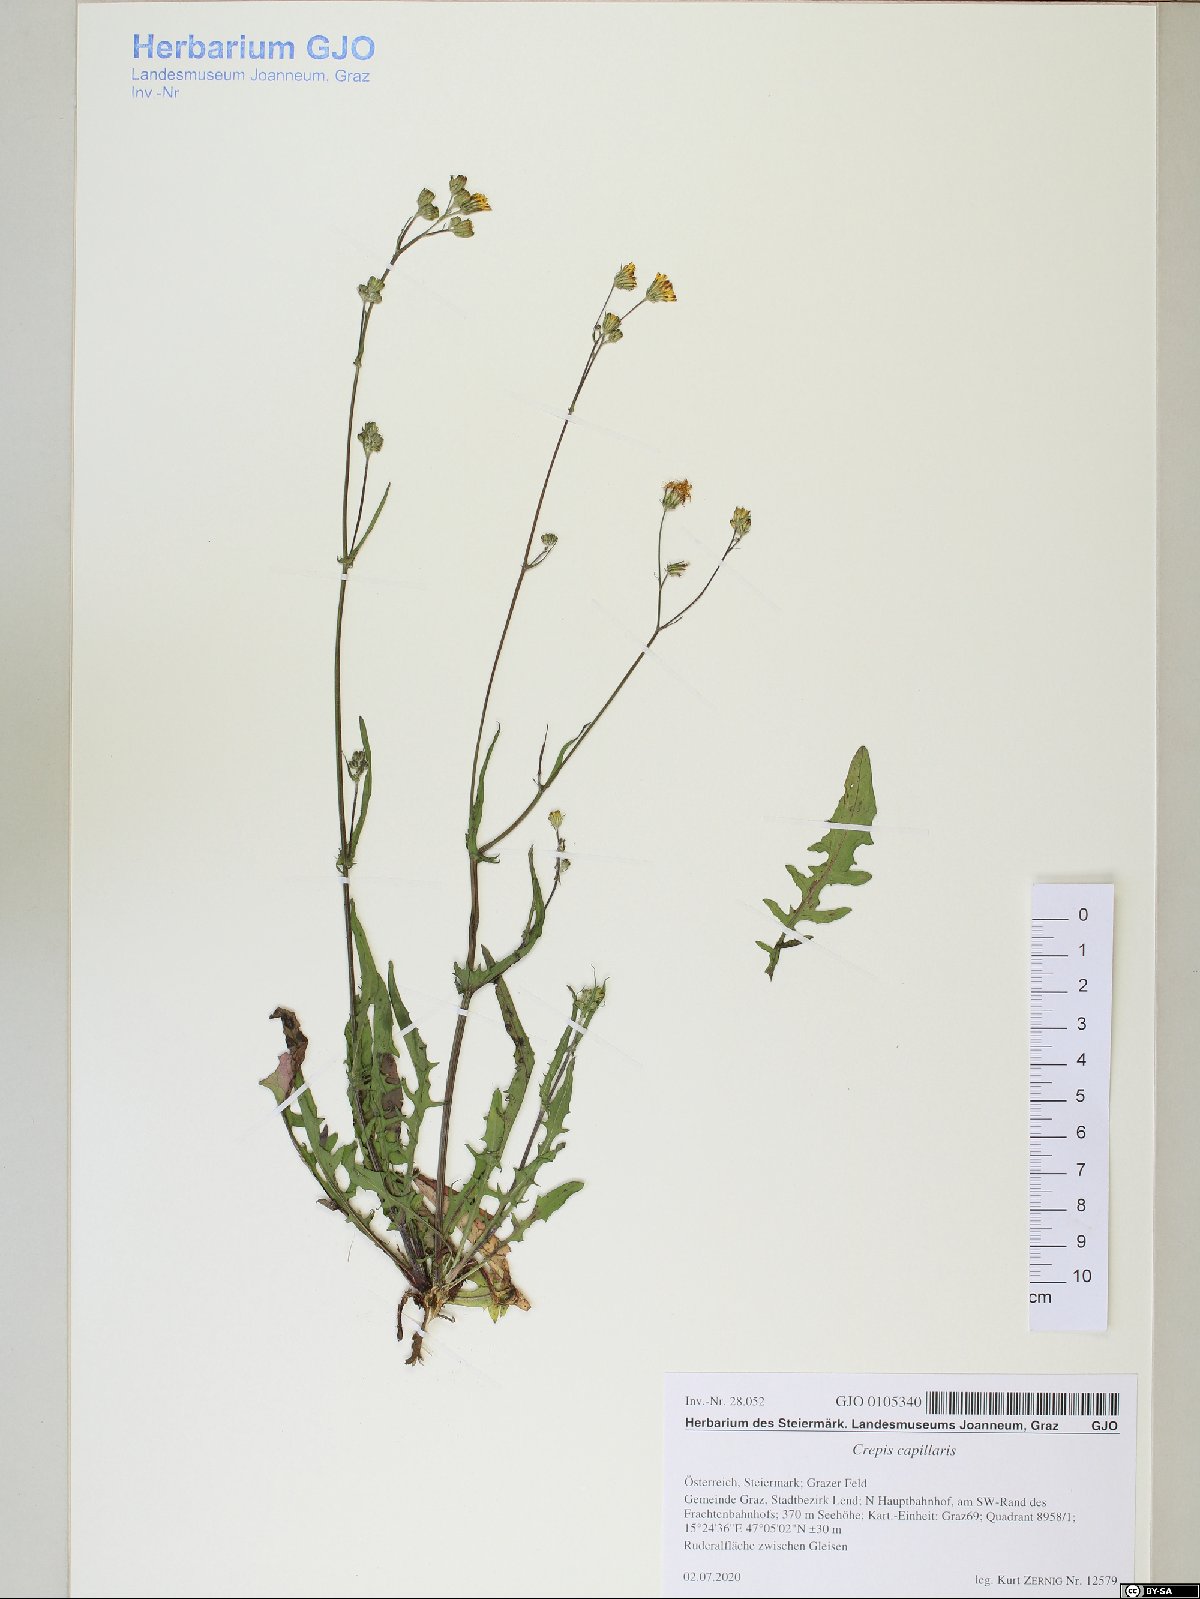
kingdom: Plantae
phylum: Tracheophyta
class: Magnoliopsida
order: Asterales
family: Asteraceae
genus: Crepis
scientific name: Crepis capillaris
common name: Smooth hawksbeard
